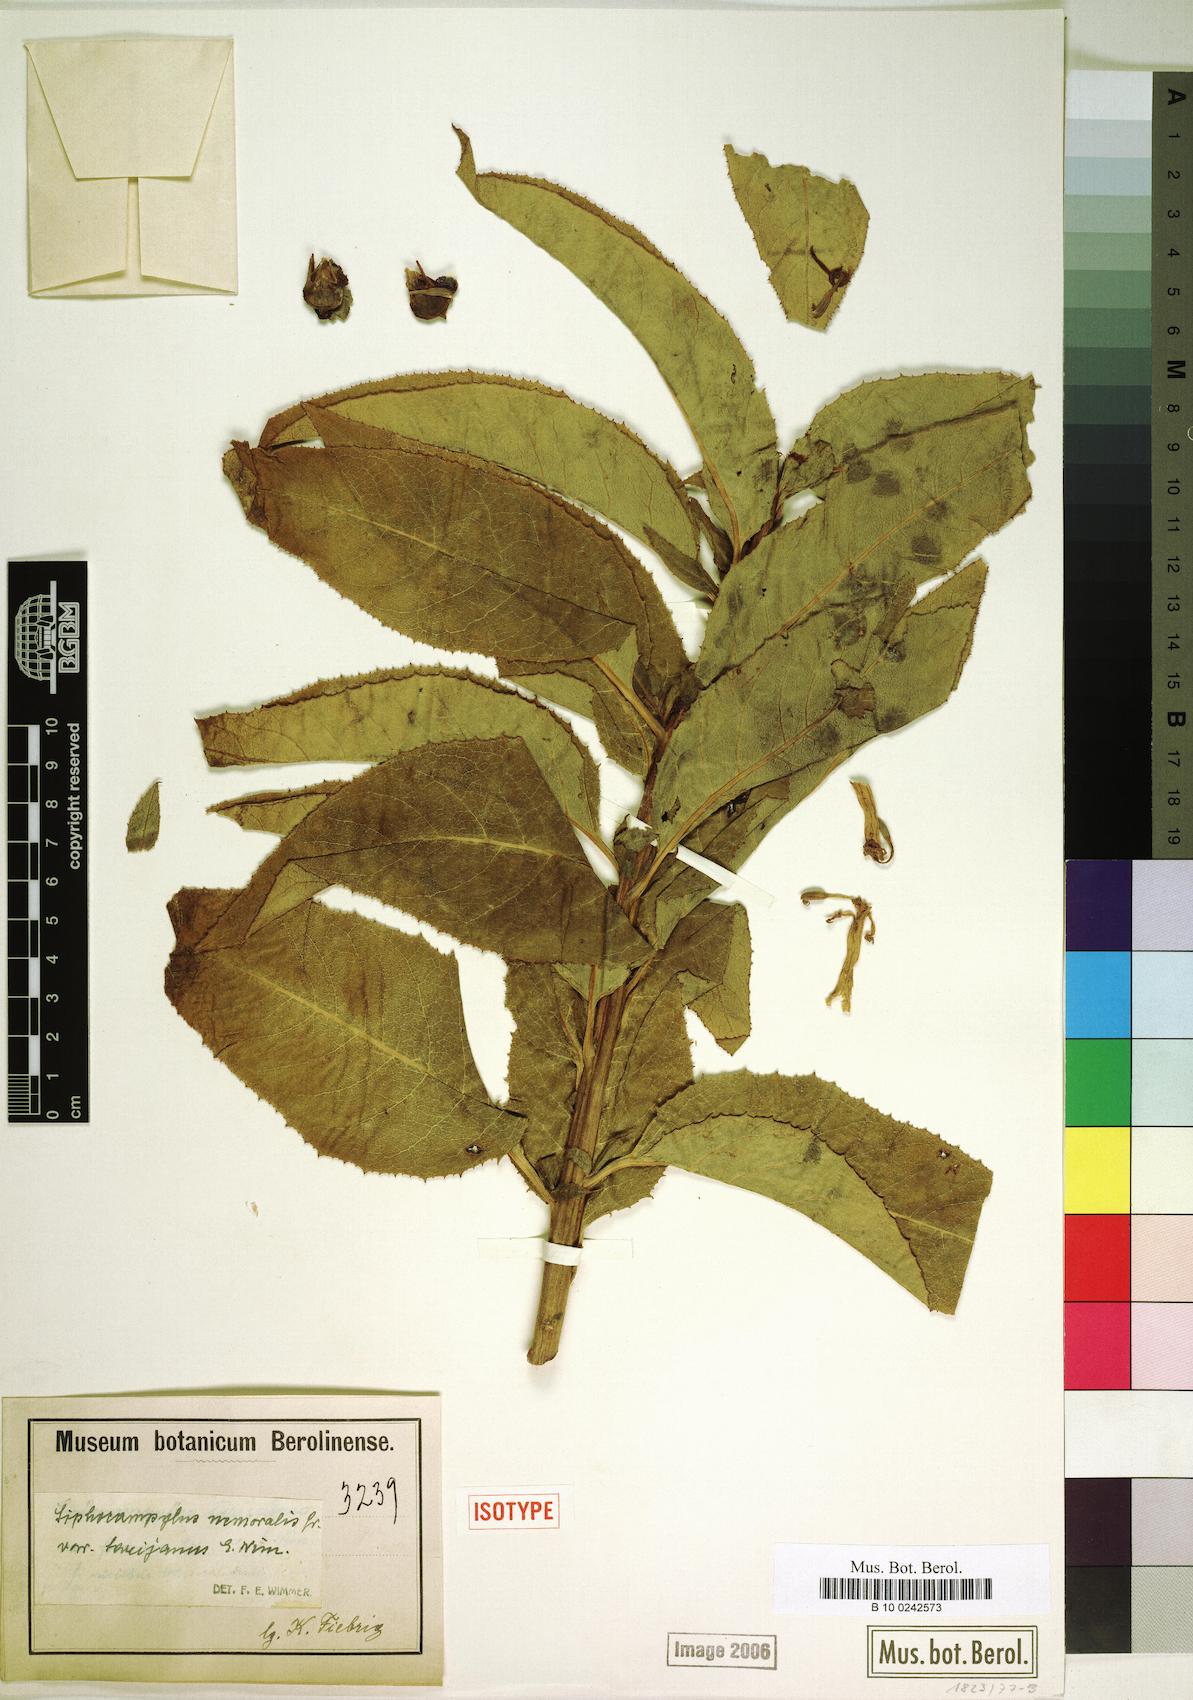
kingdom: Plantae
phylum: Tracheophyta
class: Magnoliopsida
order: Asterales
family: Campanulaceae
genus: Siphocampylus
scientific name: Siphocampylus nemoralis
